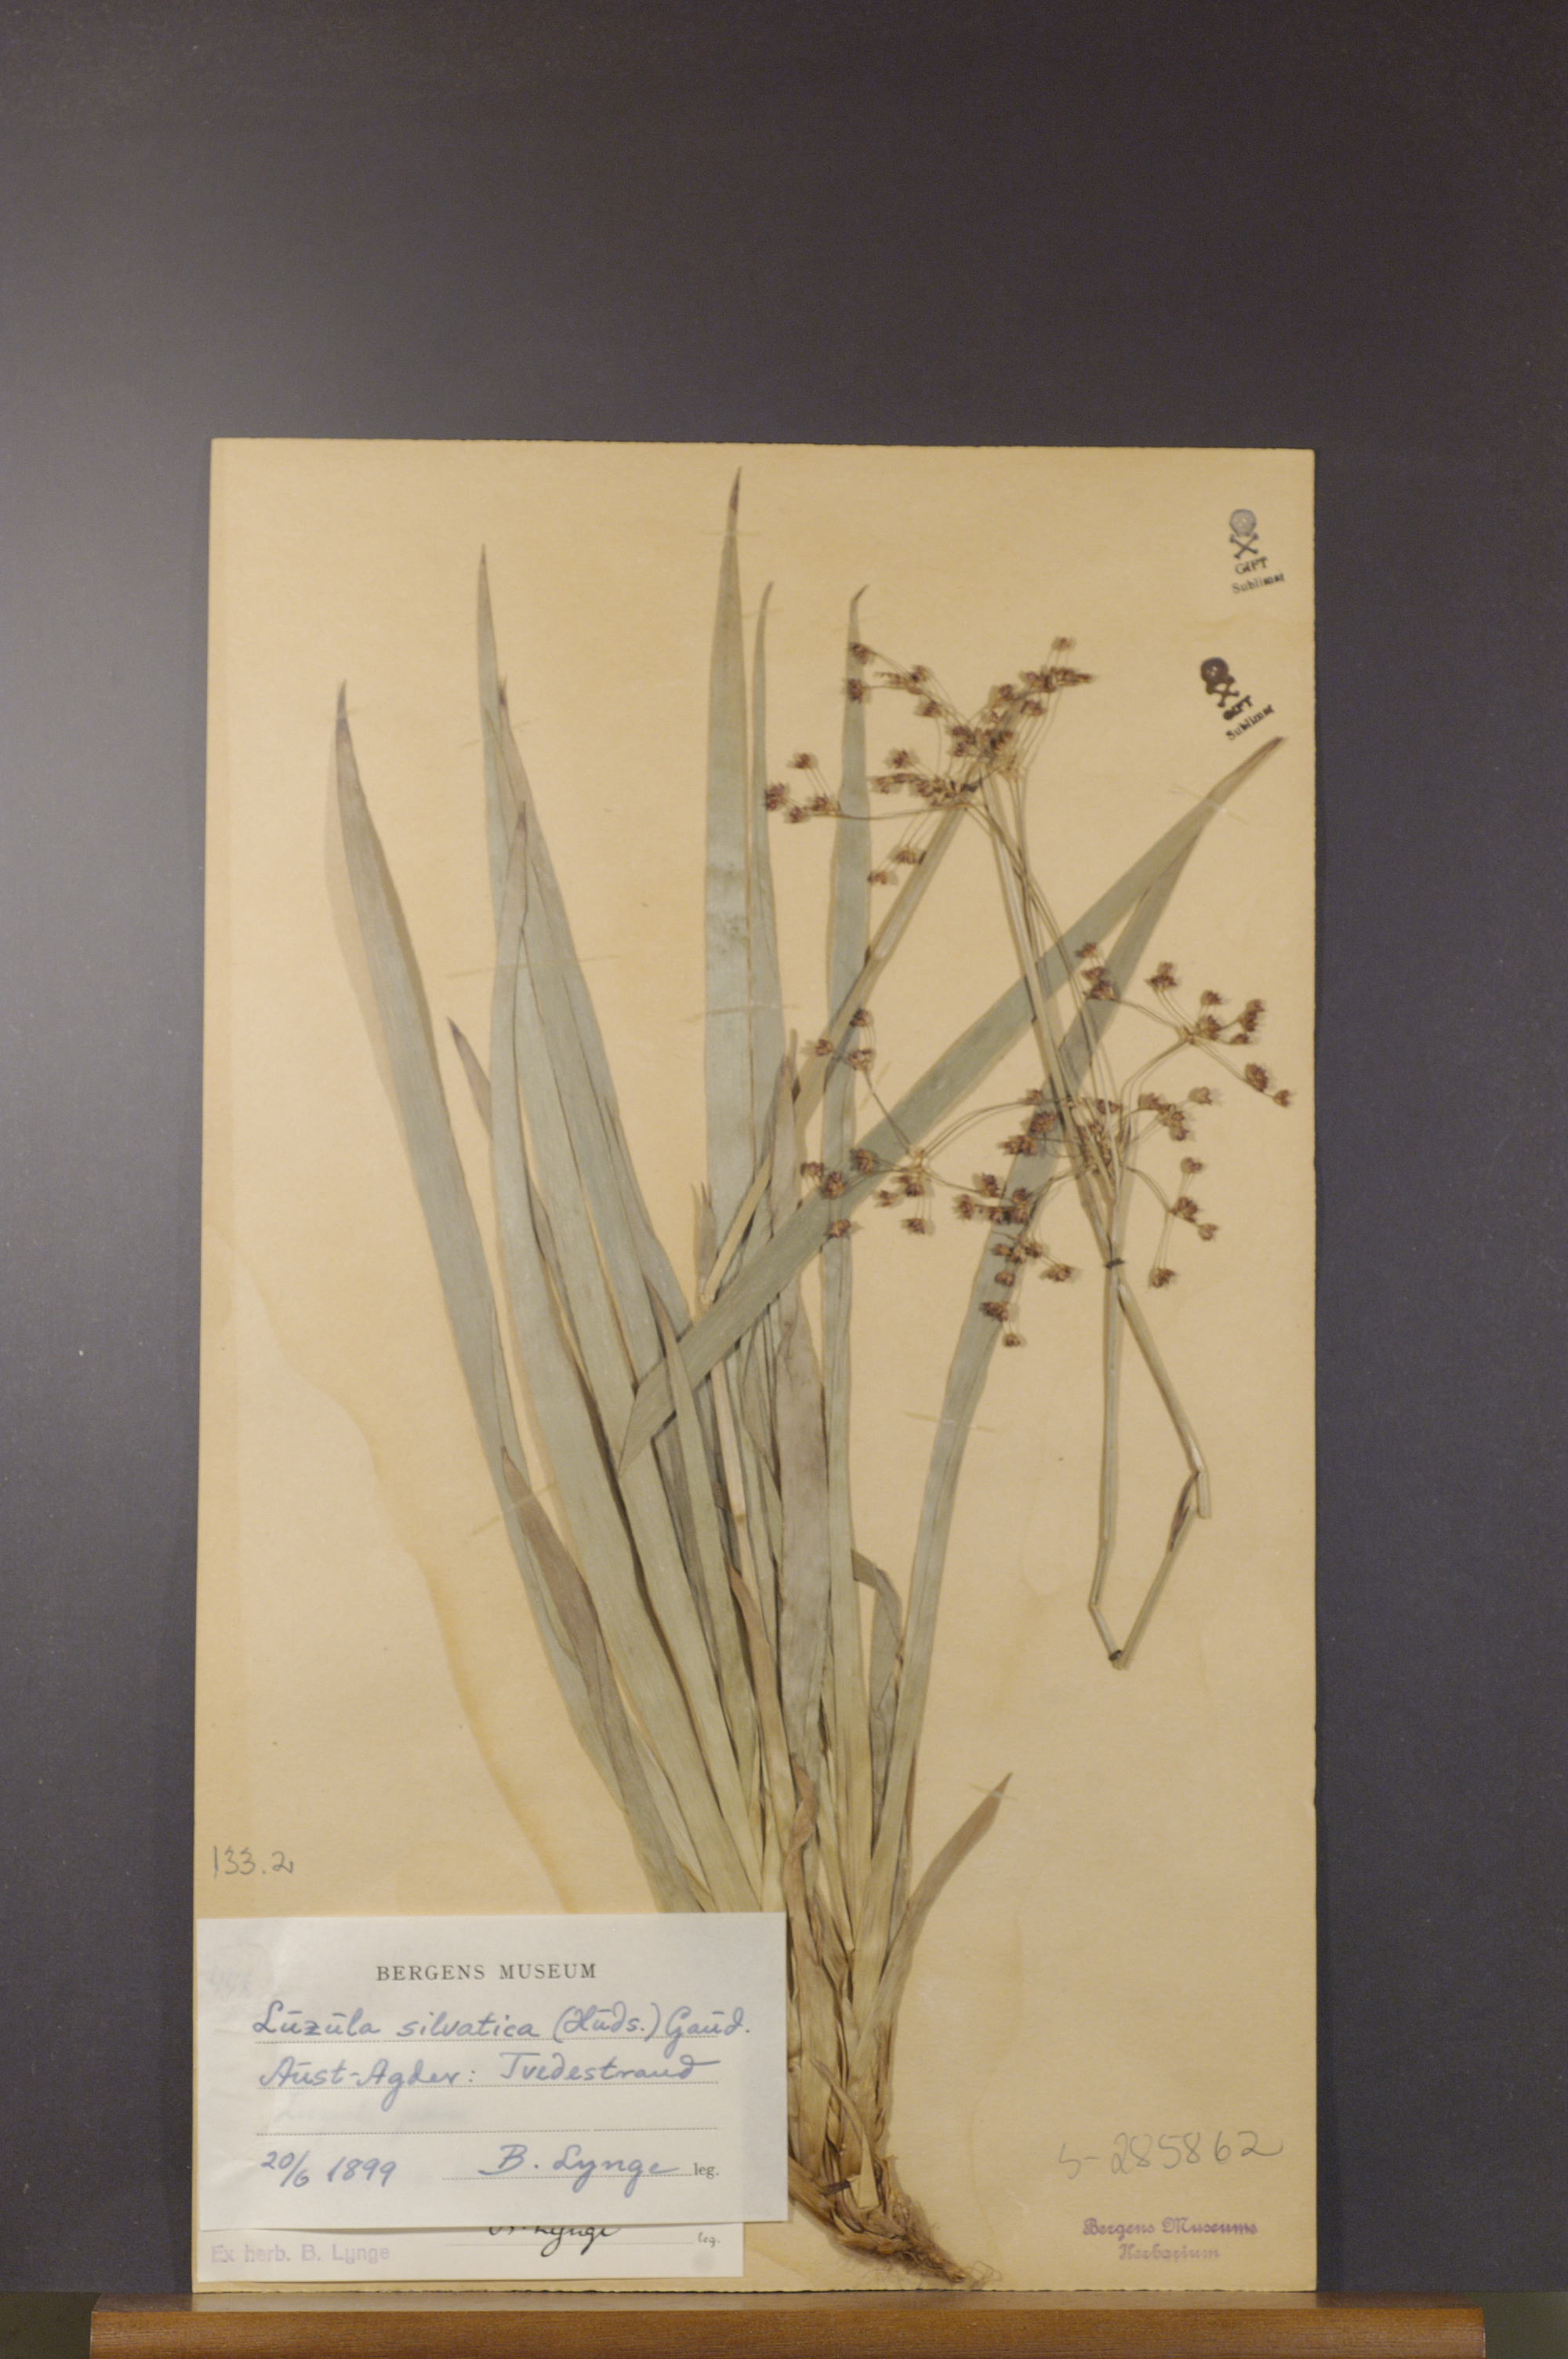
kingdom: Plantae
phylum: Tracheophyta
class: Liliopsida
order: Poales
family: Juncaceae
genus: Luzula
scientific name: Luzula sylvatica
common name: Great wood-rush
